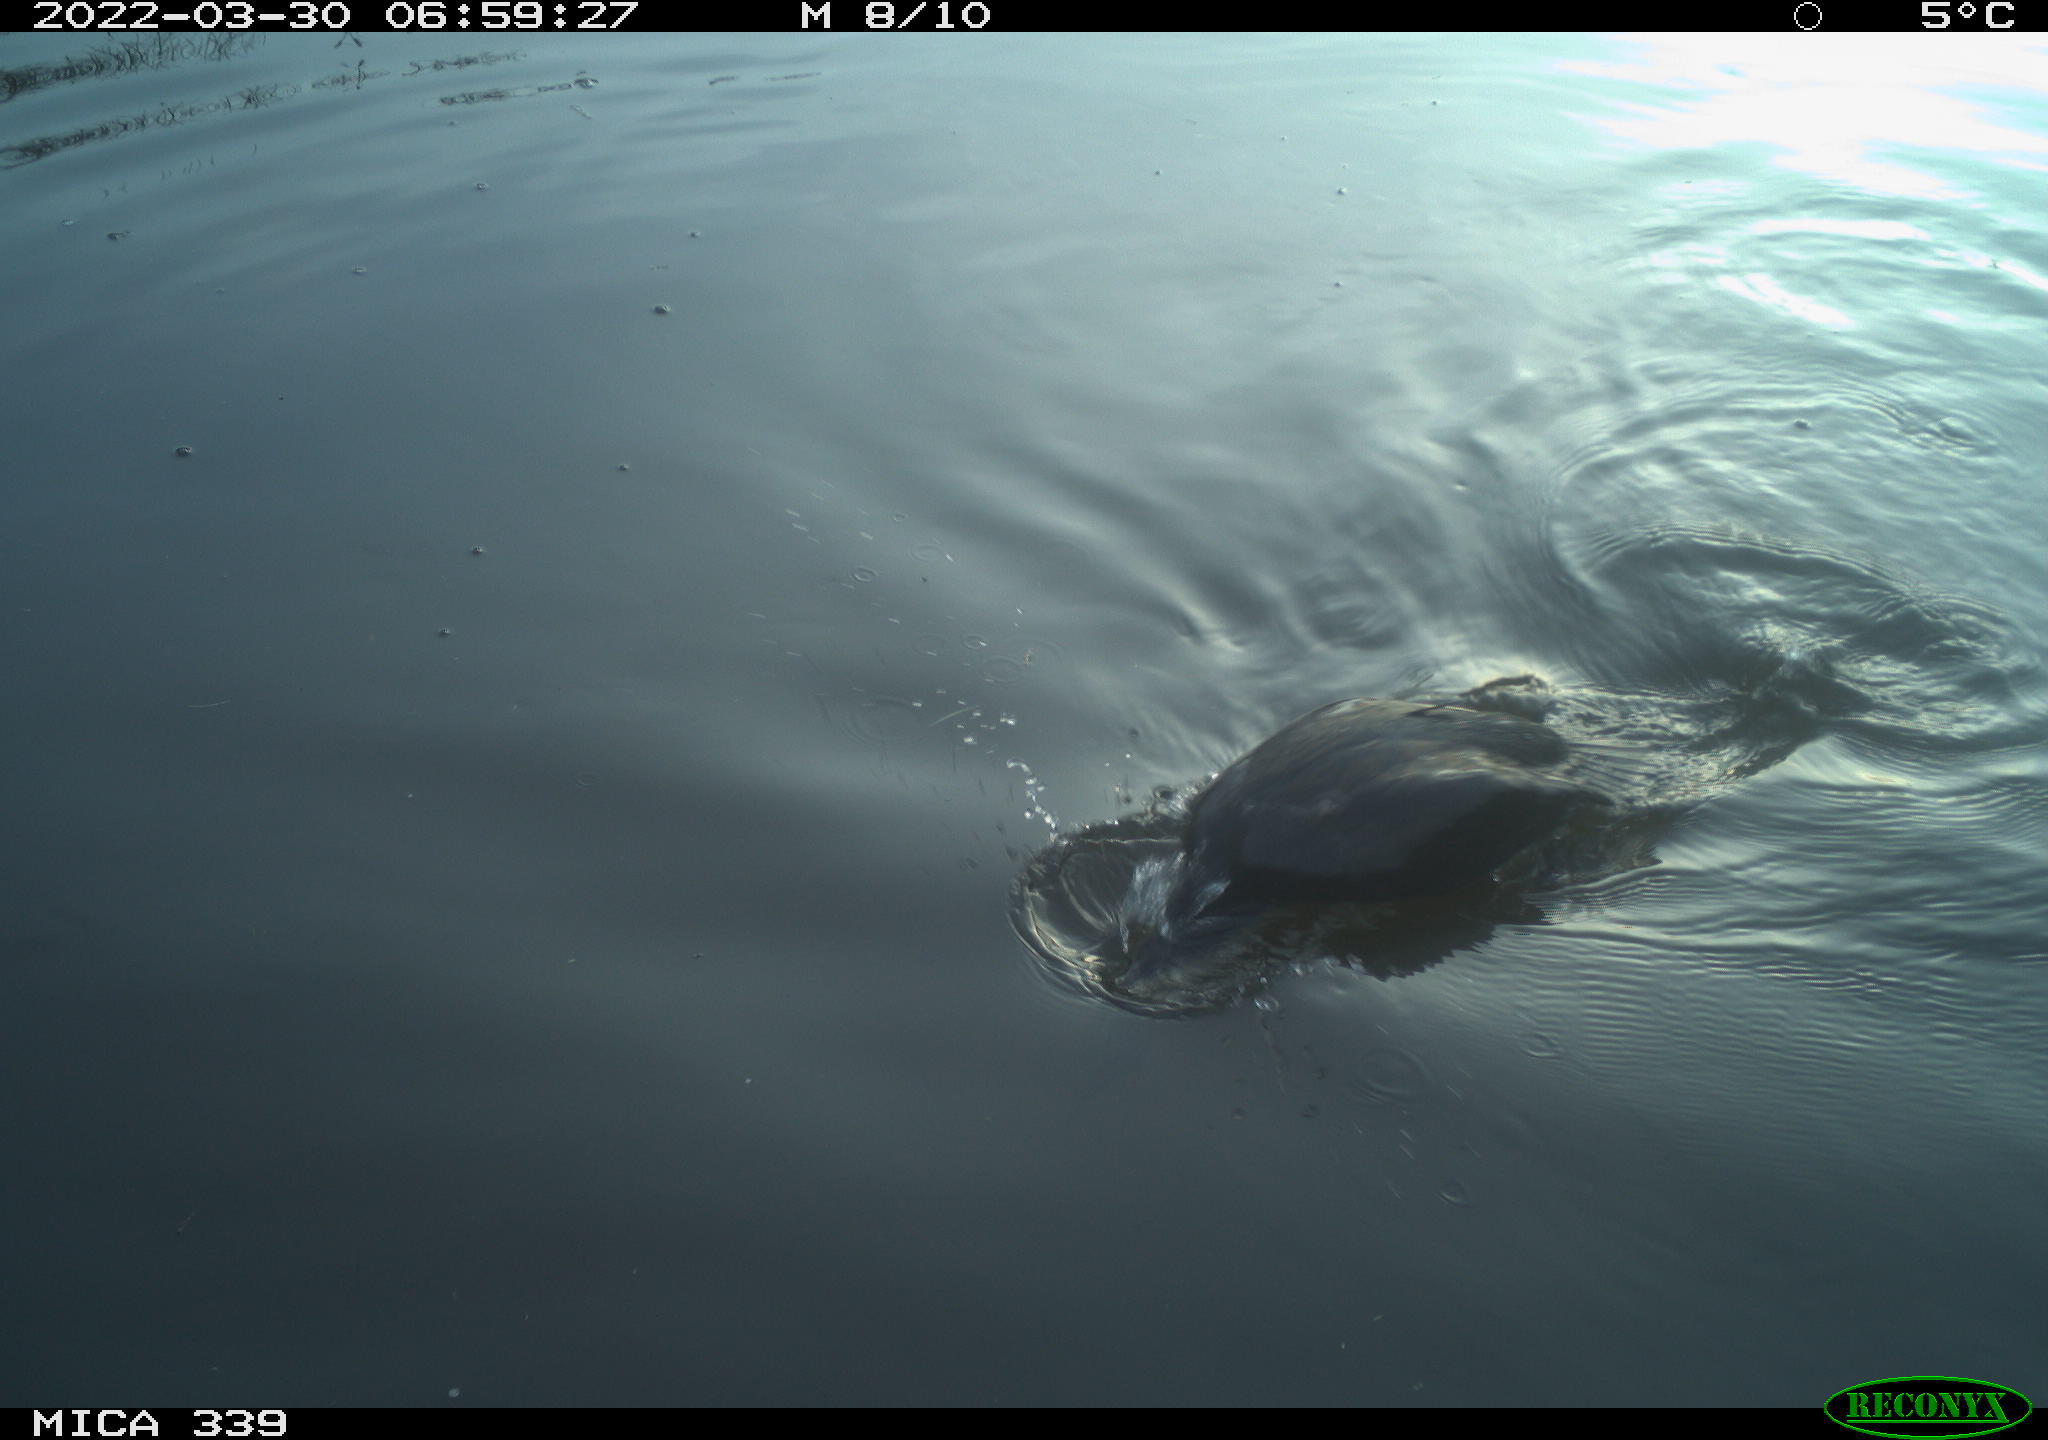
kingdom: Animalia
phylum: Chordata
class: Aves
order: Suliformes
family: Phalacrocoracidae
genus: Phalacrocorax
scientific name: Phalacrocorax carbo
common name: Great cormorant
